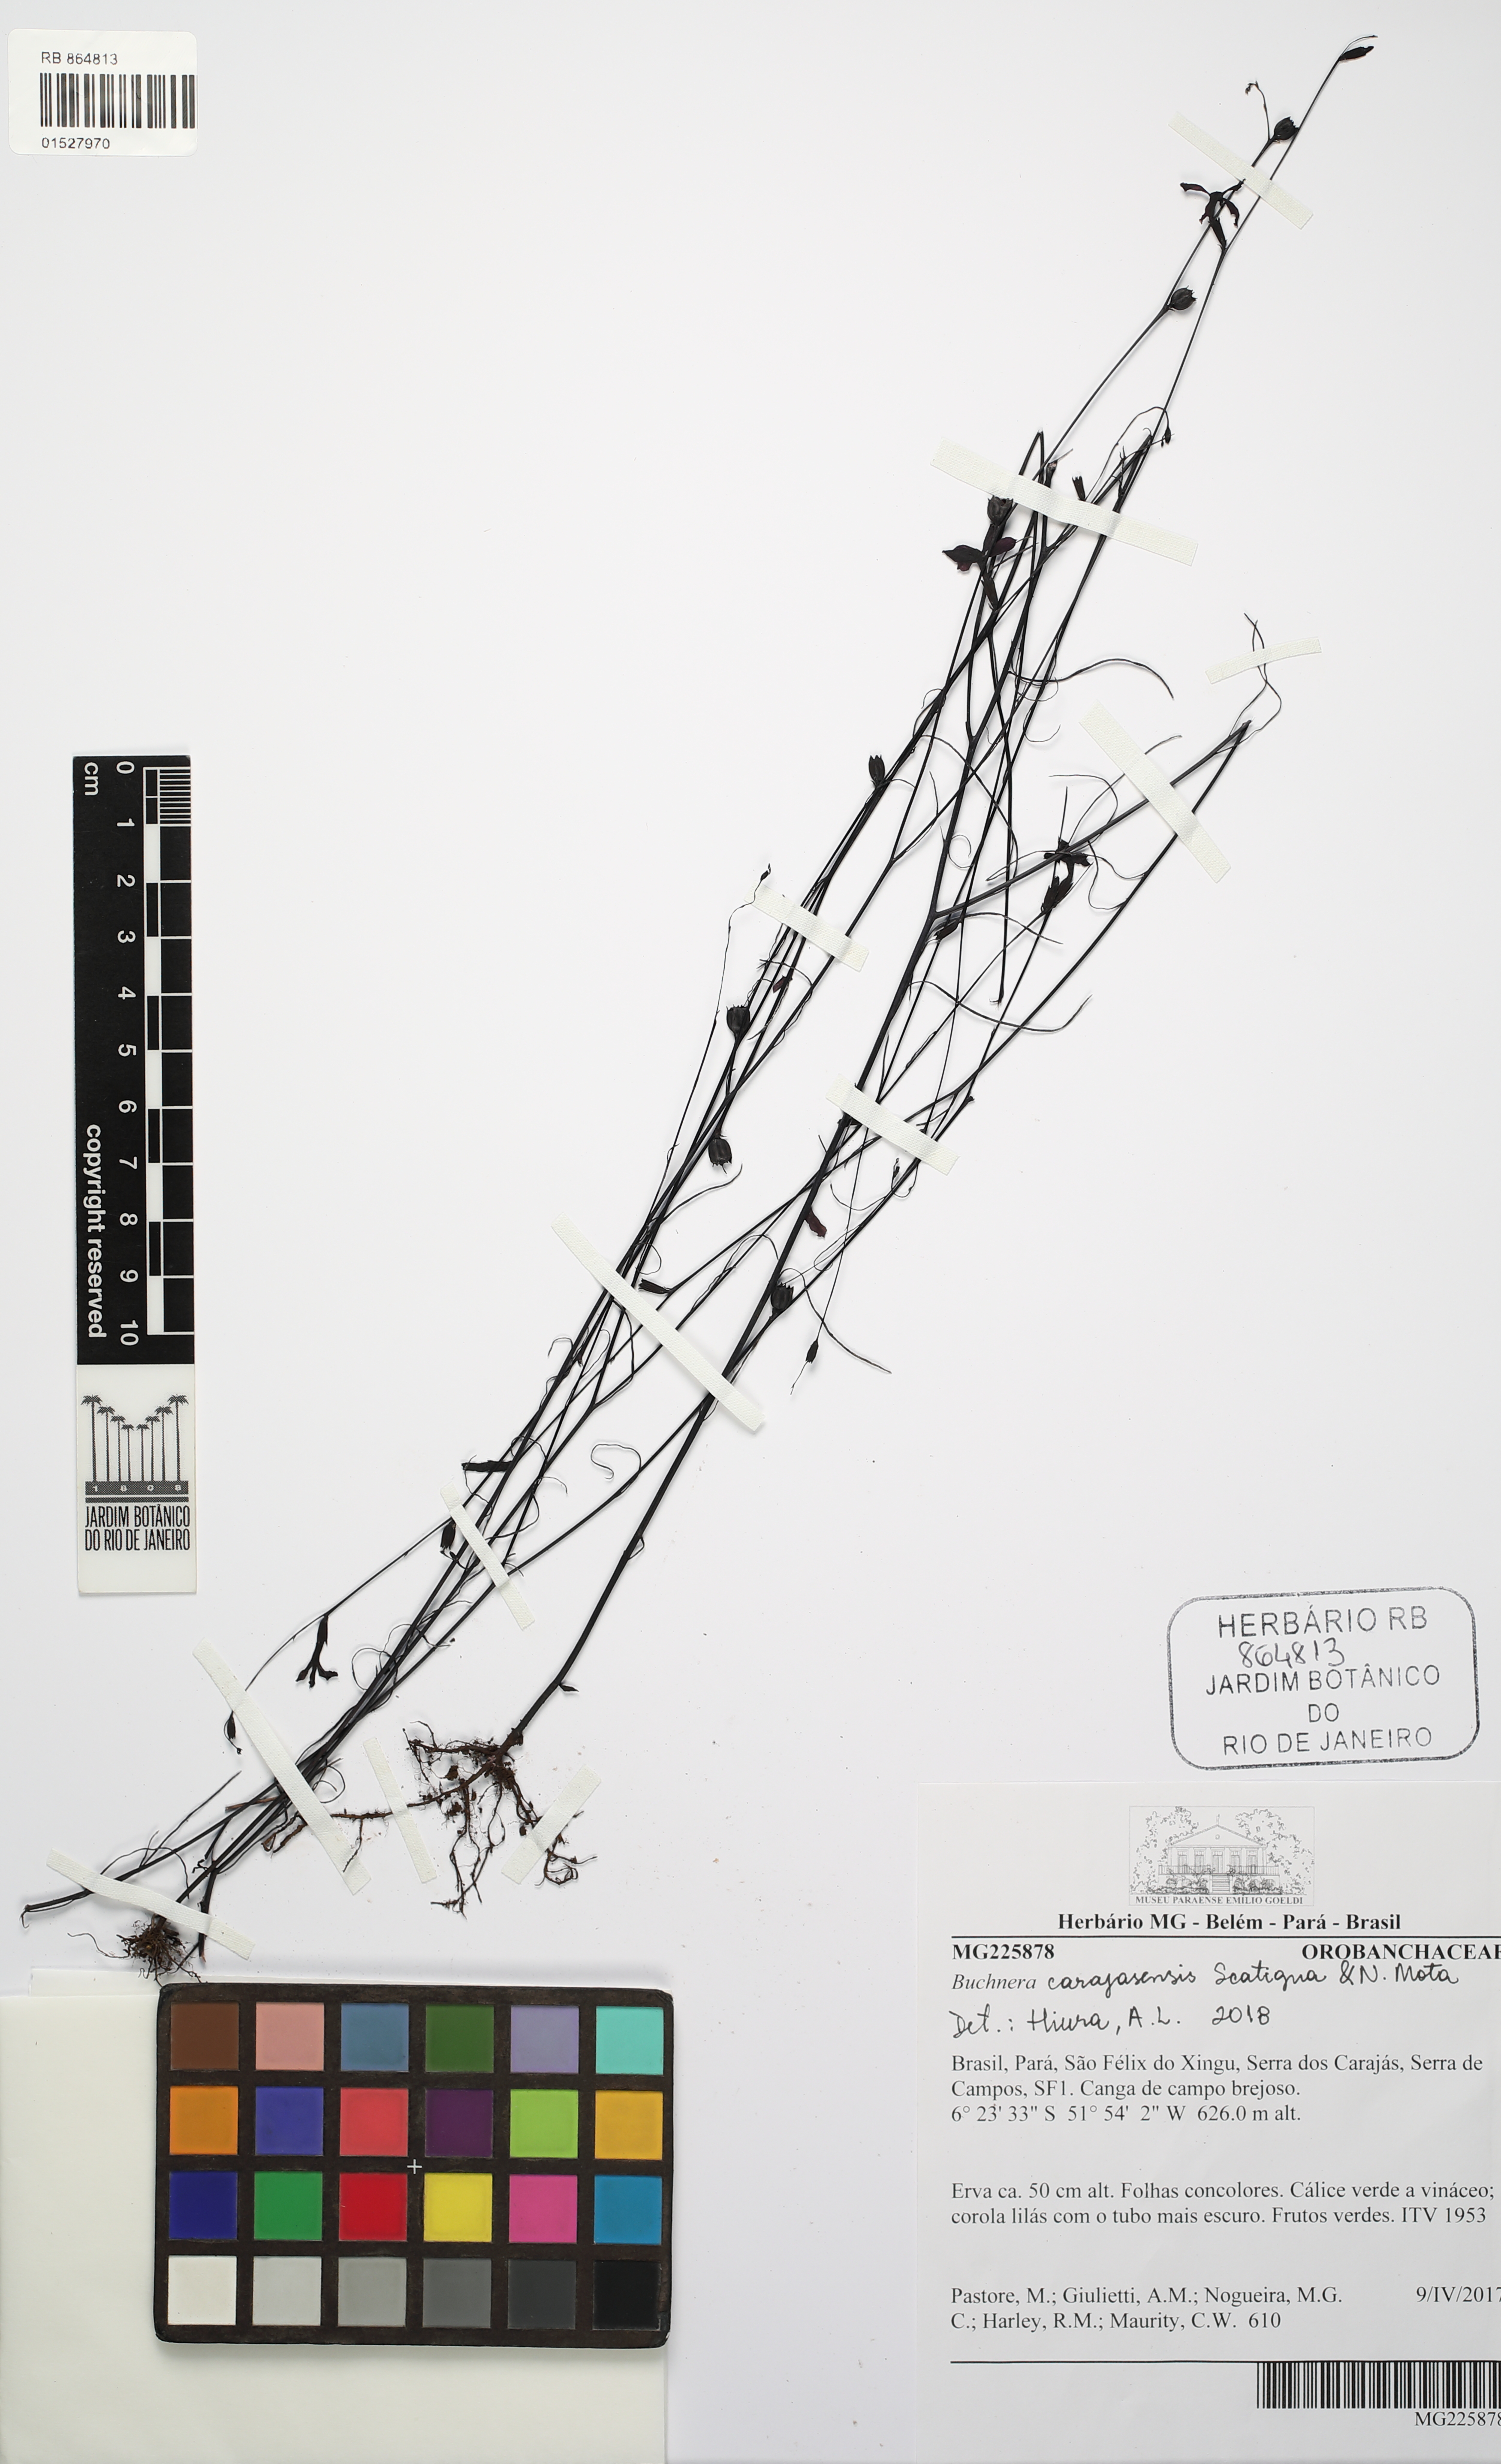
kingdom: Plantae
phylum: Tracheophyta
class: Magnoliopsida
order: Lamiales
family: Orobanchaceae
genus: Buchnera
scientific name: Buchnera carajasensis
